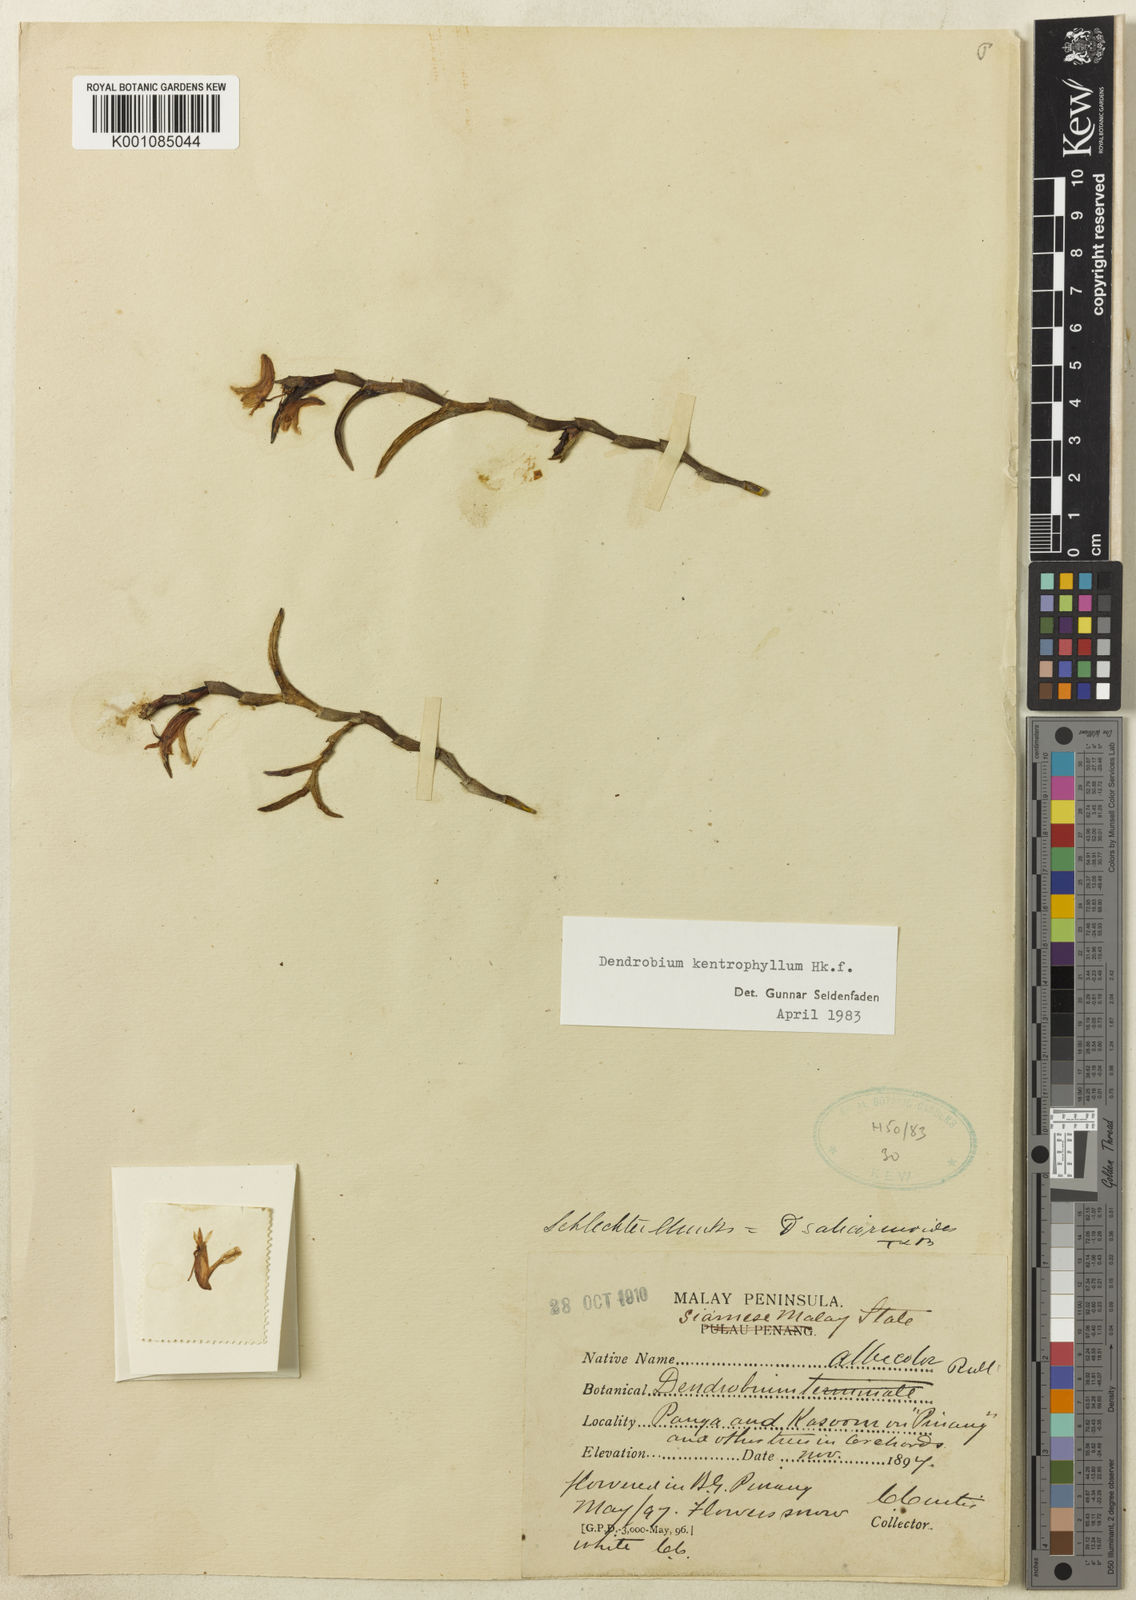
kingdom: Plantae
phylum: Tracheophyta
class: Liliopsida
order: Asparagales
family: Orchidaceae
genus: Dendrobium
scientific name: Dendrobium kentrophyllum
